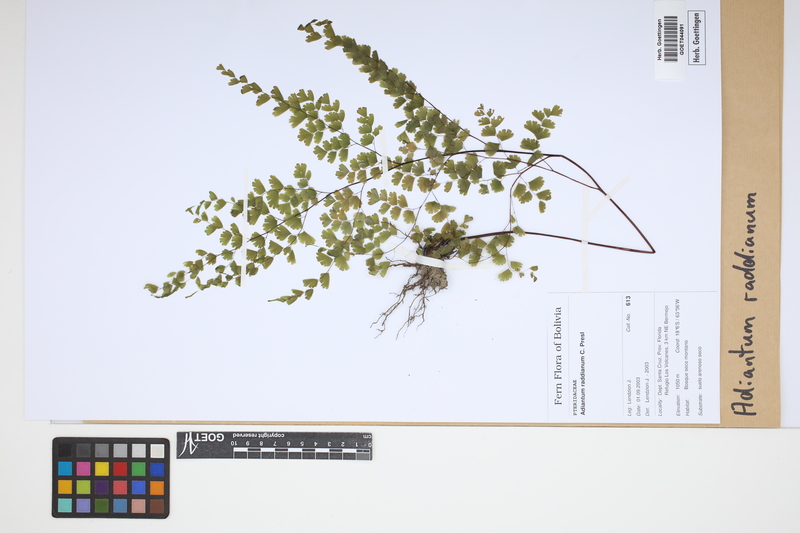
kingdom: Plantae
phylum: Tracheophyta
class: Polypodiopsida
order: Polypodiales
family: Pteridaceae
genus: Adiantum
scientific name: Adiantum raddianum
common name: Delta maidenhair fern
